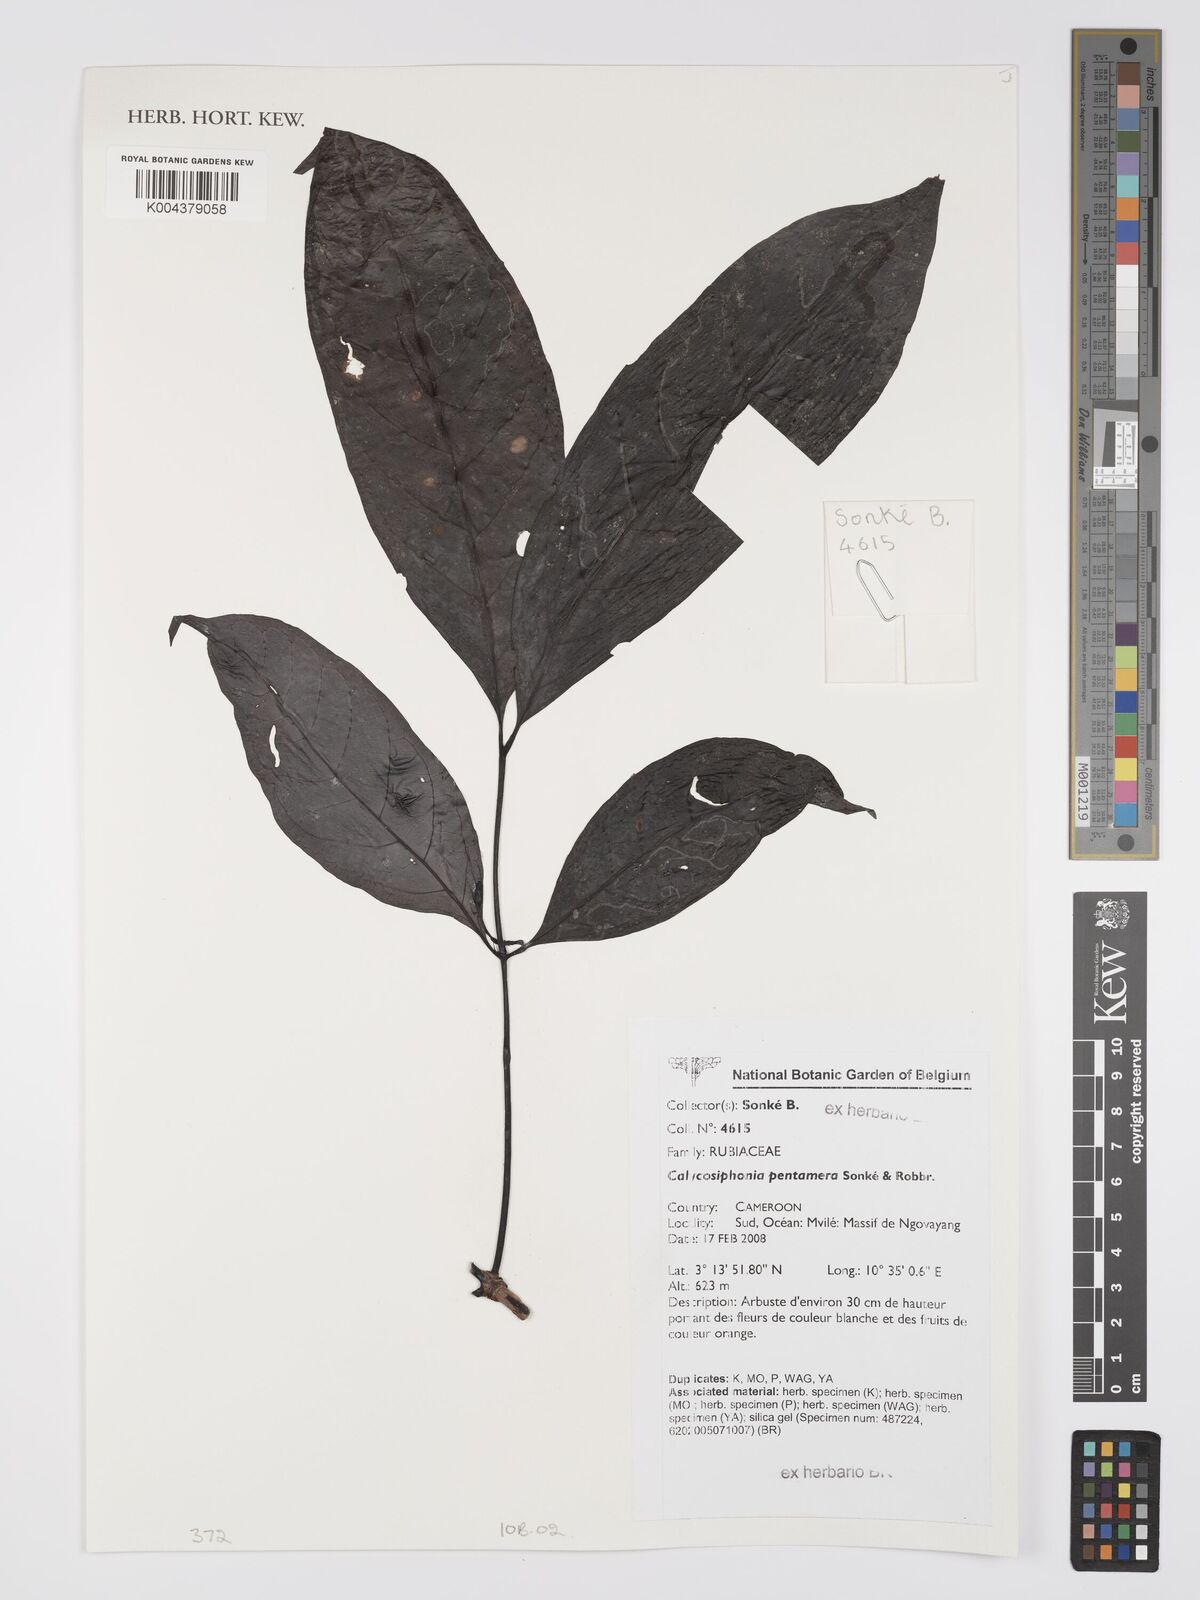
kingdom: Plantae
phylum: Tracheophyta
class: Magnoliopsida
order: Gentianales
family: Rubiaceae
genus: Kupeantha
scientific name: Kupeantha pentamera
